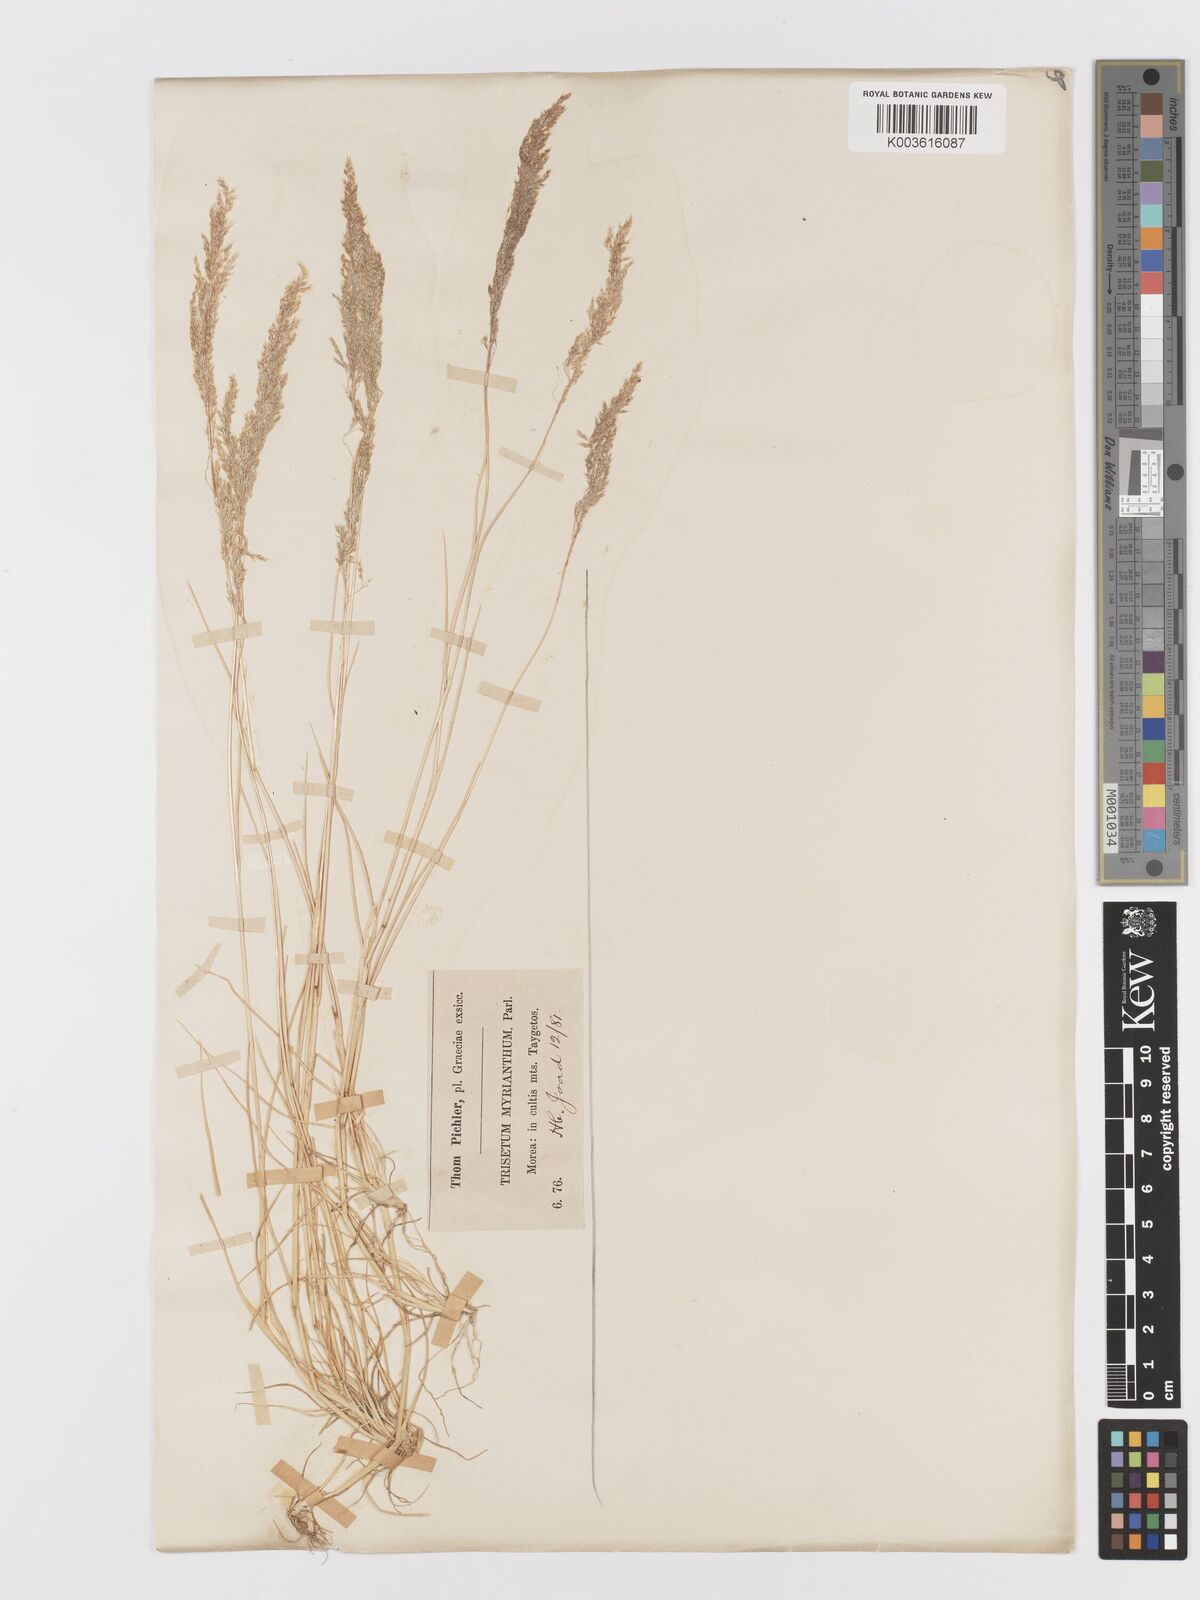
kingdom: Plantae
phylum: Tracheophyta
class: Liliopsida
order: Poales
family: Poaceae
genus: Parvotrisetum
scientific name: Parvotrisetum myrianthum
